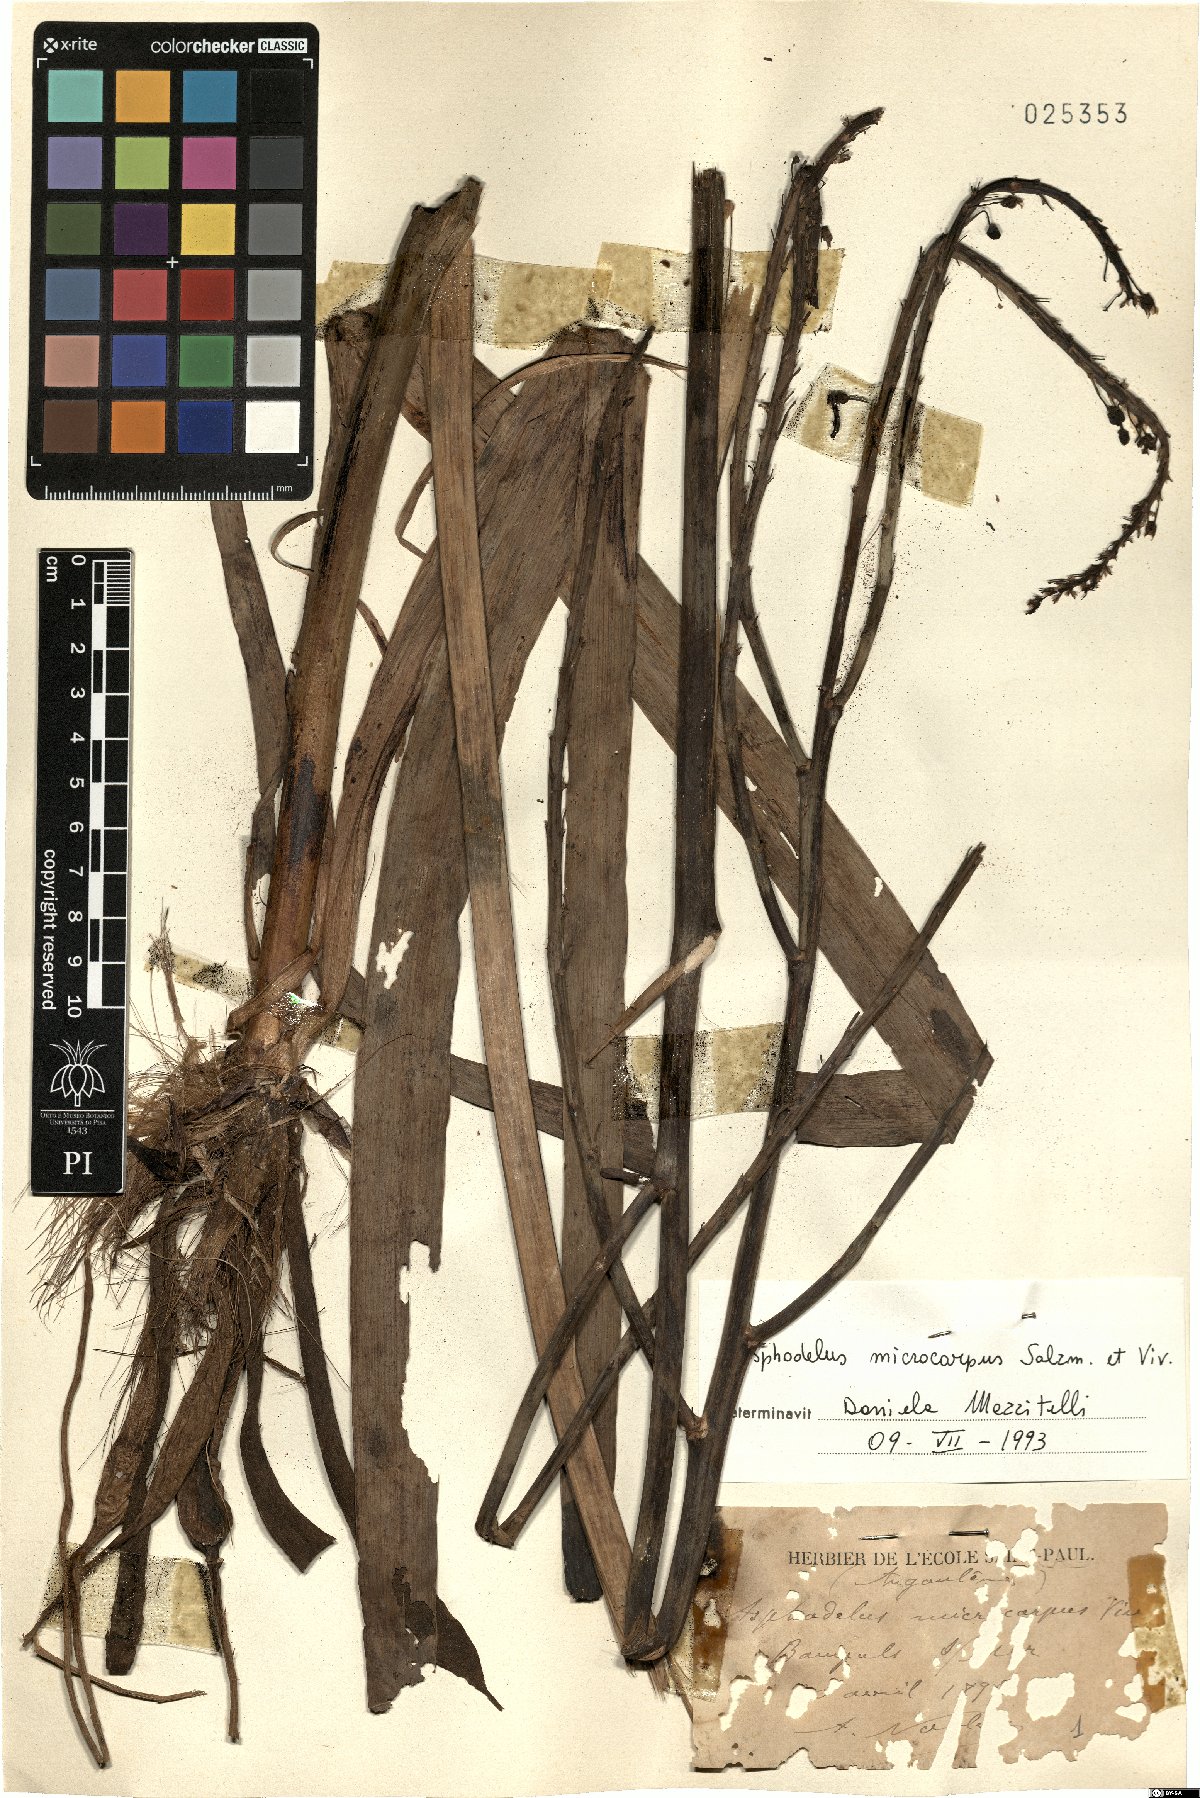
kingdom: Plantae
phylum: Tracheophyta
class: Liliopsida
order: Asparagales
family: Asphodelaceae
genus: Asphodelus
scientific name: Asphodelus ramosus
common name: Silverrod
